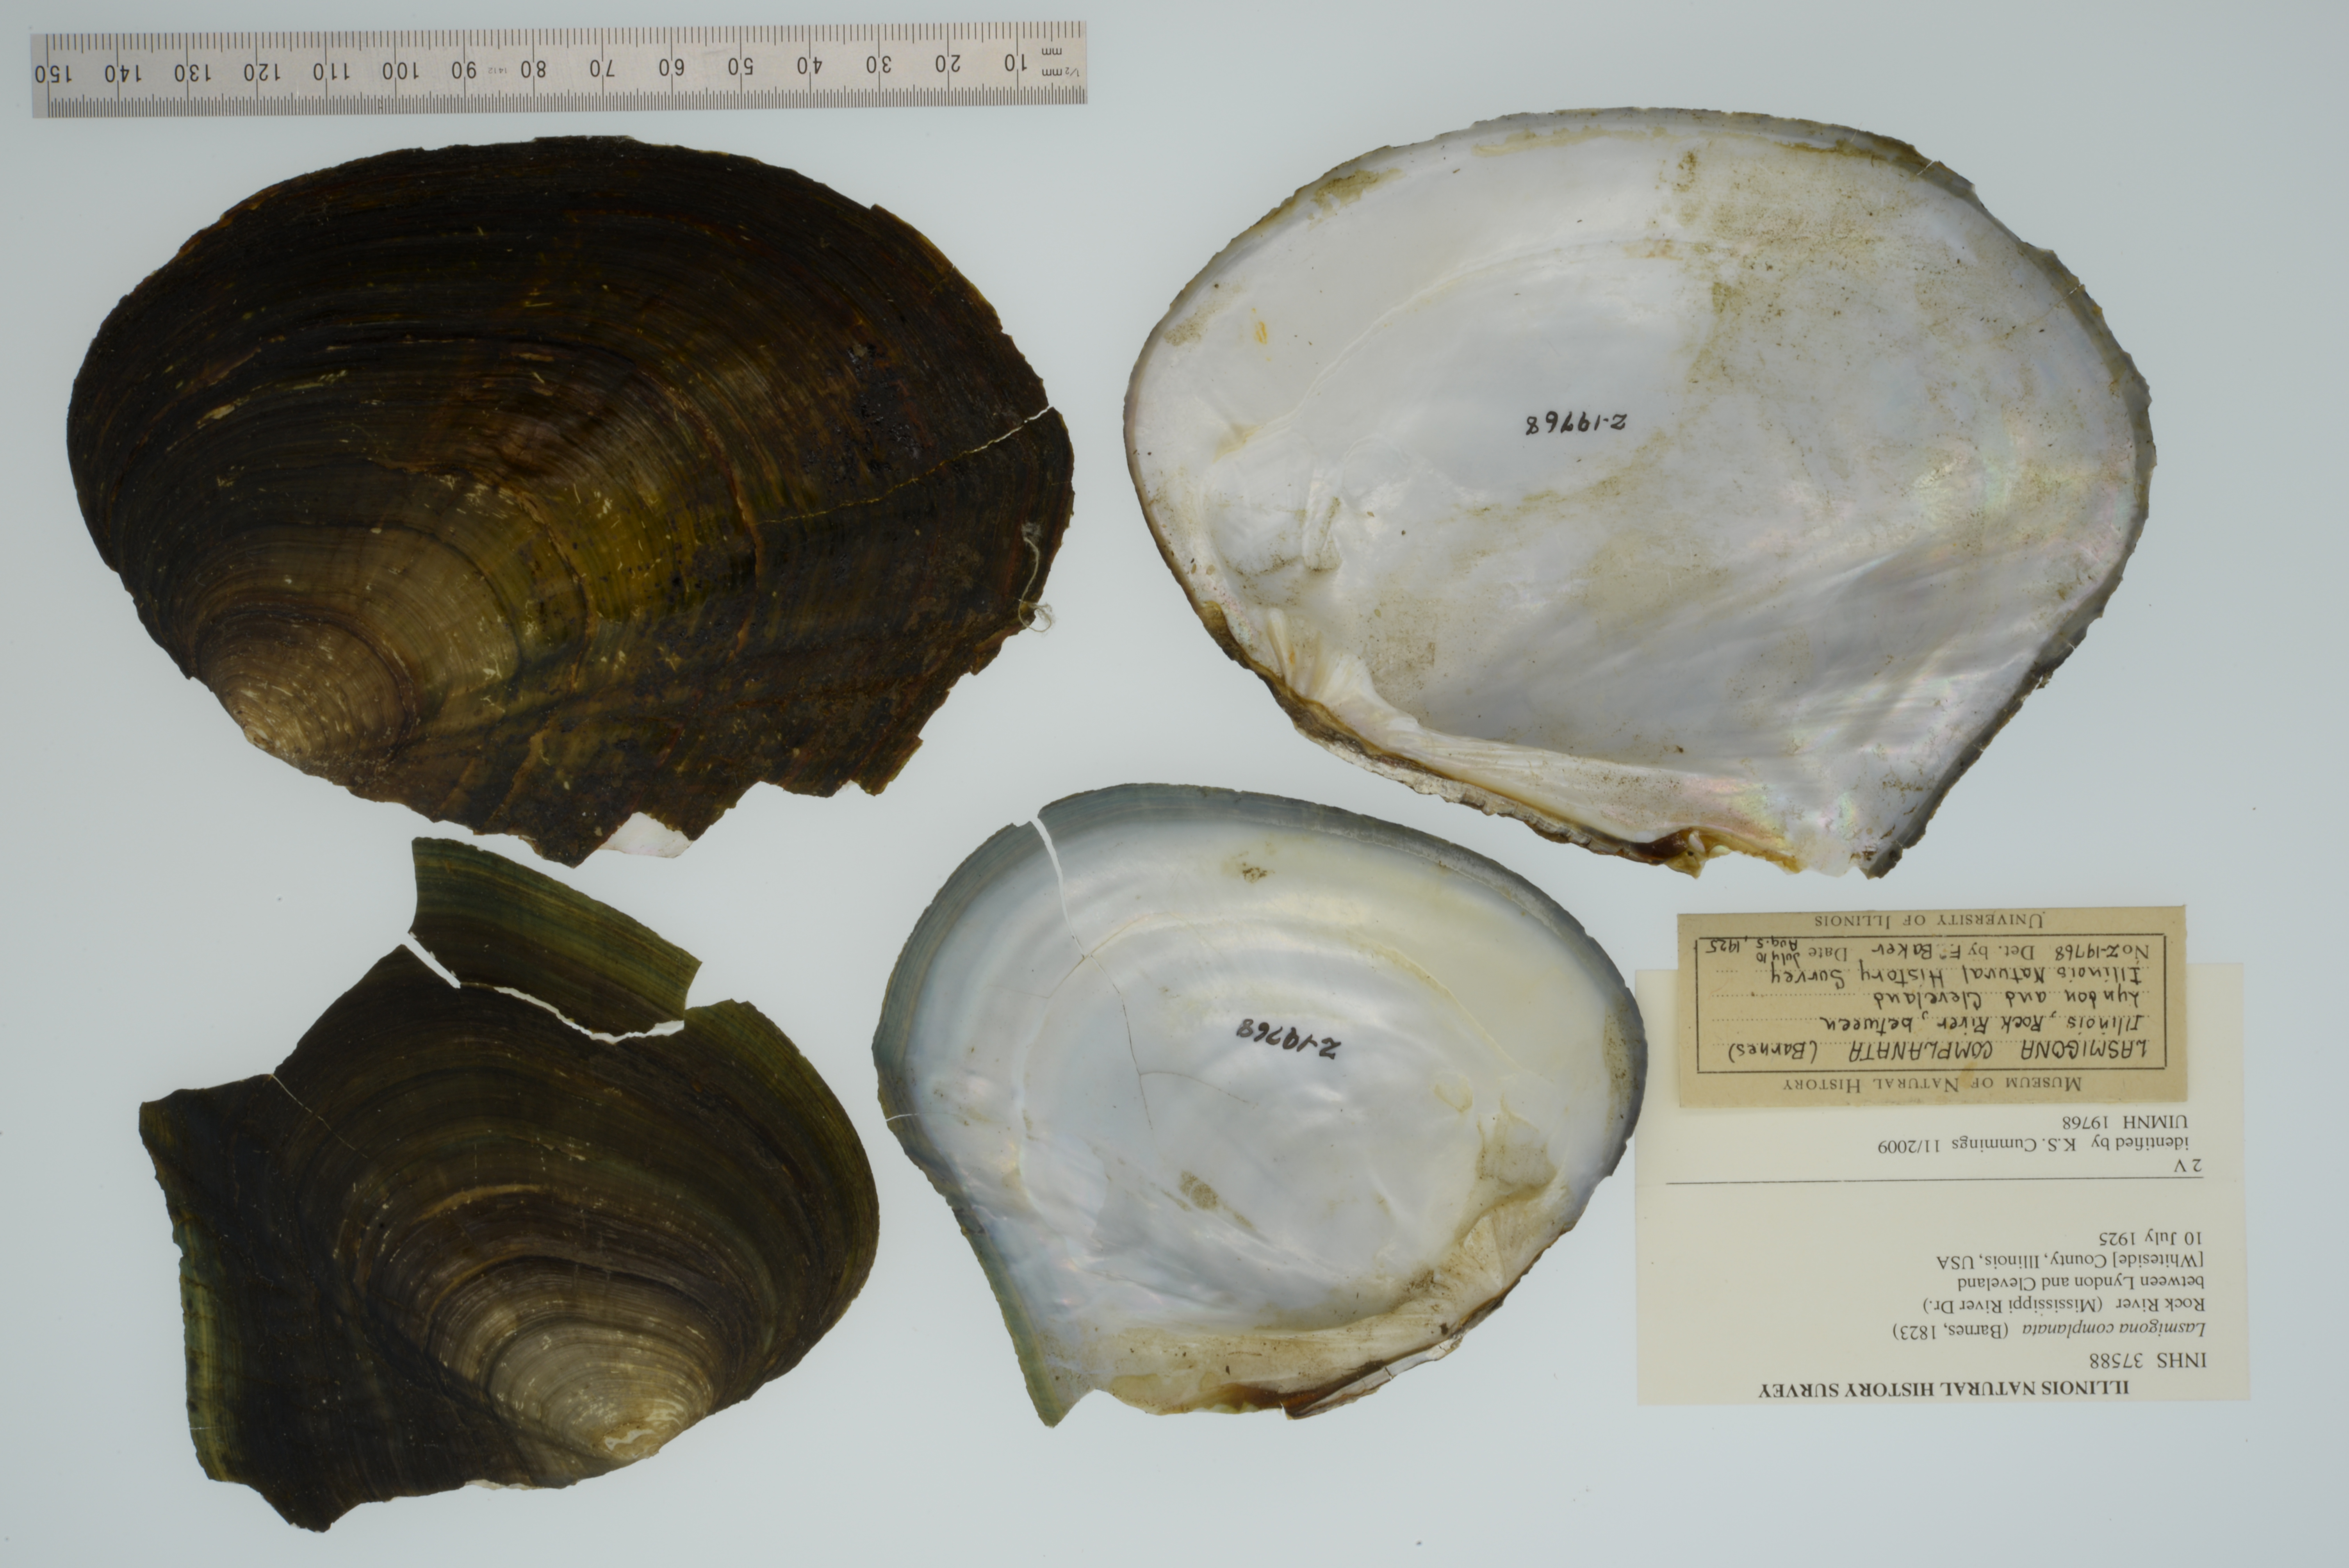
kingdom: Animalia
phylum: Mollusca
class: Bivalvia
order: Unionida
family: Unionidae
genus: Lasmigona
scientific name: Lasmigona complanata
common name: White heelsplitter
